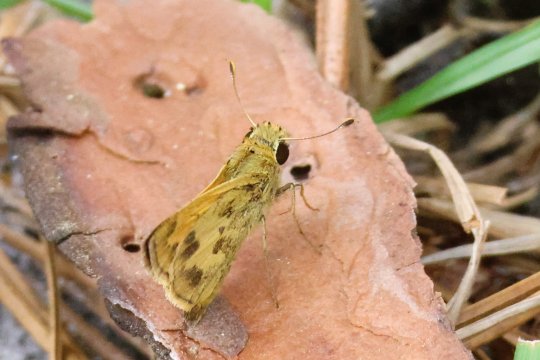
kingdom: Animalia
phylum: Arthropoda
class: Insecta
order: Lepidoptera
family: Hesperiidae
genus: Polites
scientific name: Polites vibex
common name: Whirlabout
